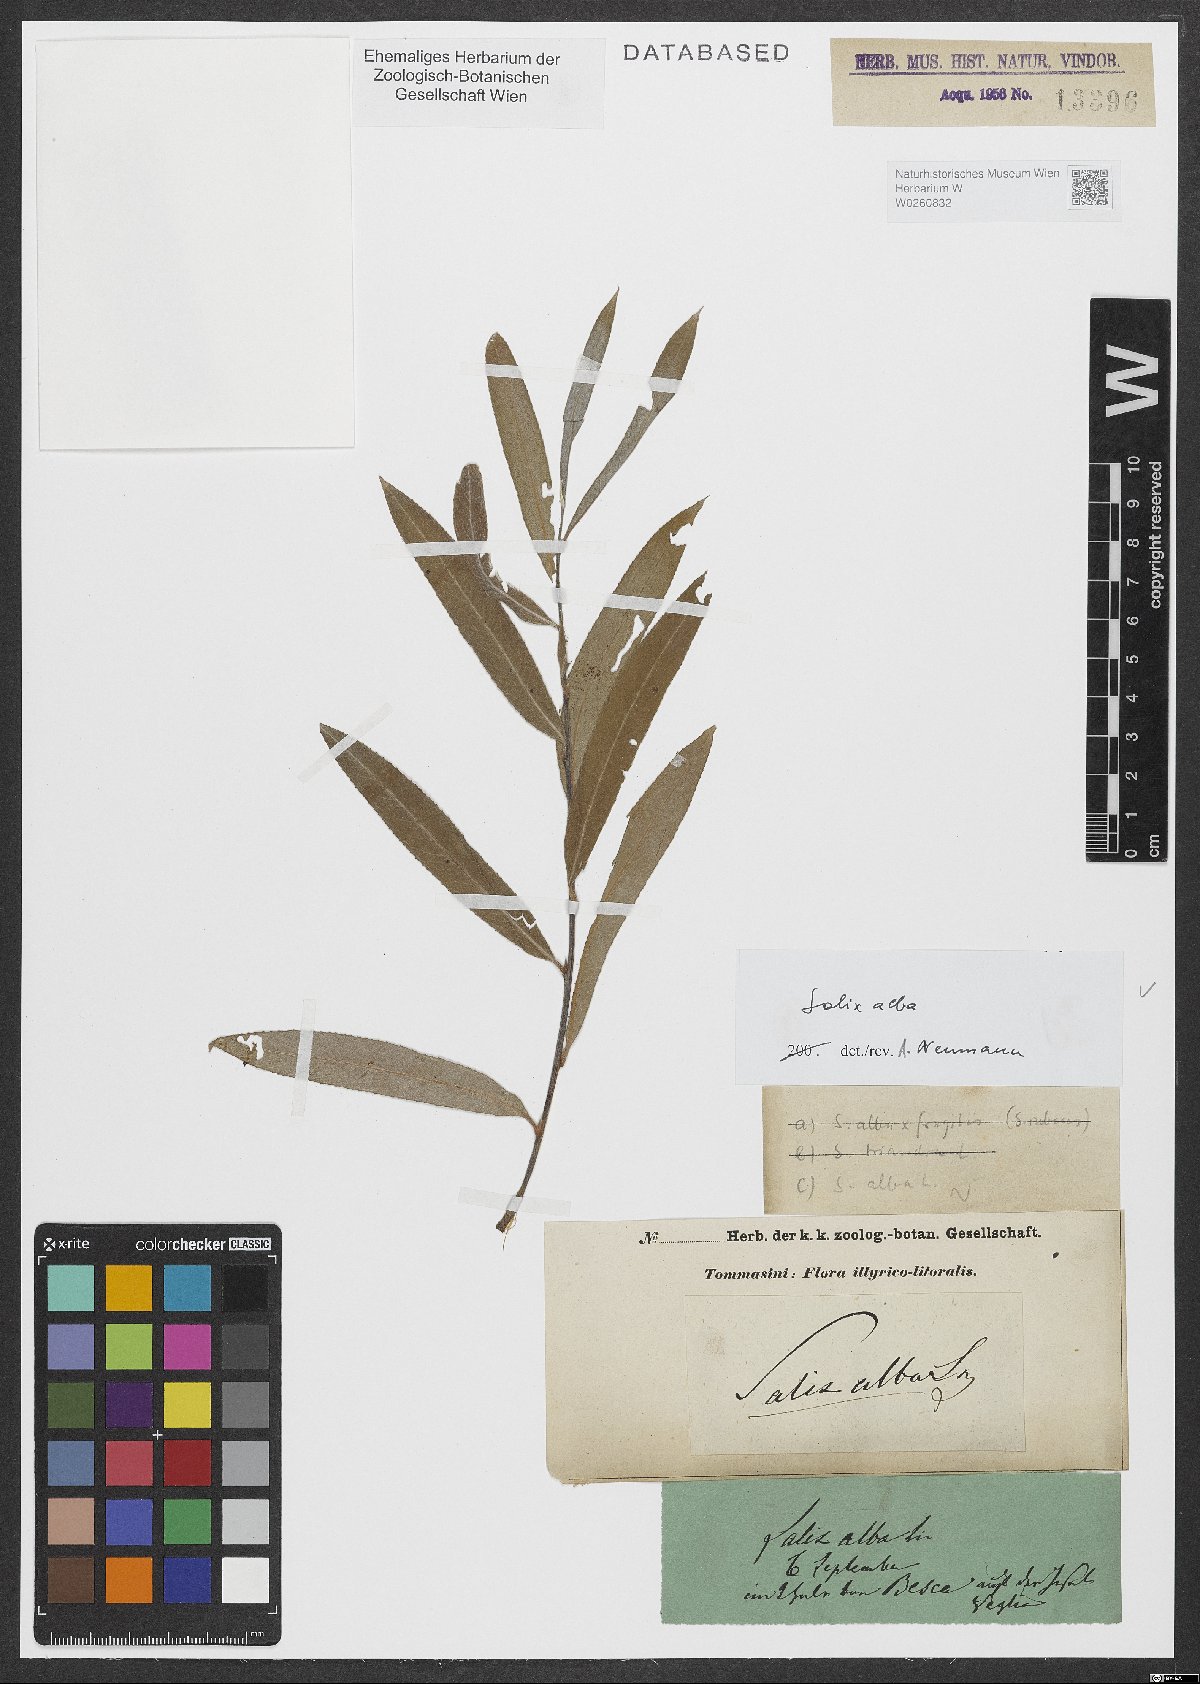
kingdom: Plantae
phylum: Tracheophyta
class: Magnoliopsida
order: Malpighiales
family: Salicaceae
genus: Salix
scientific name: Salix alba
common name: White willow
